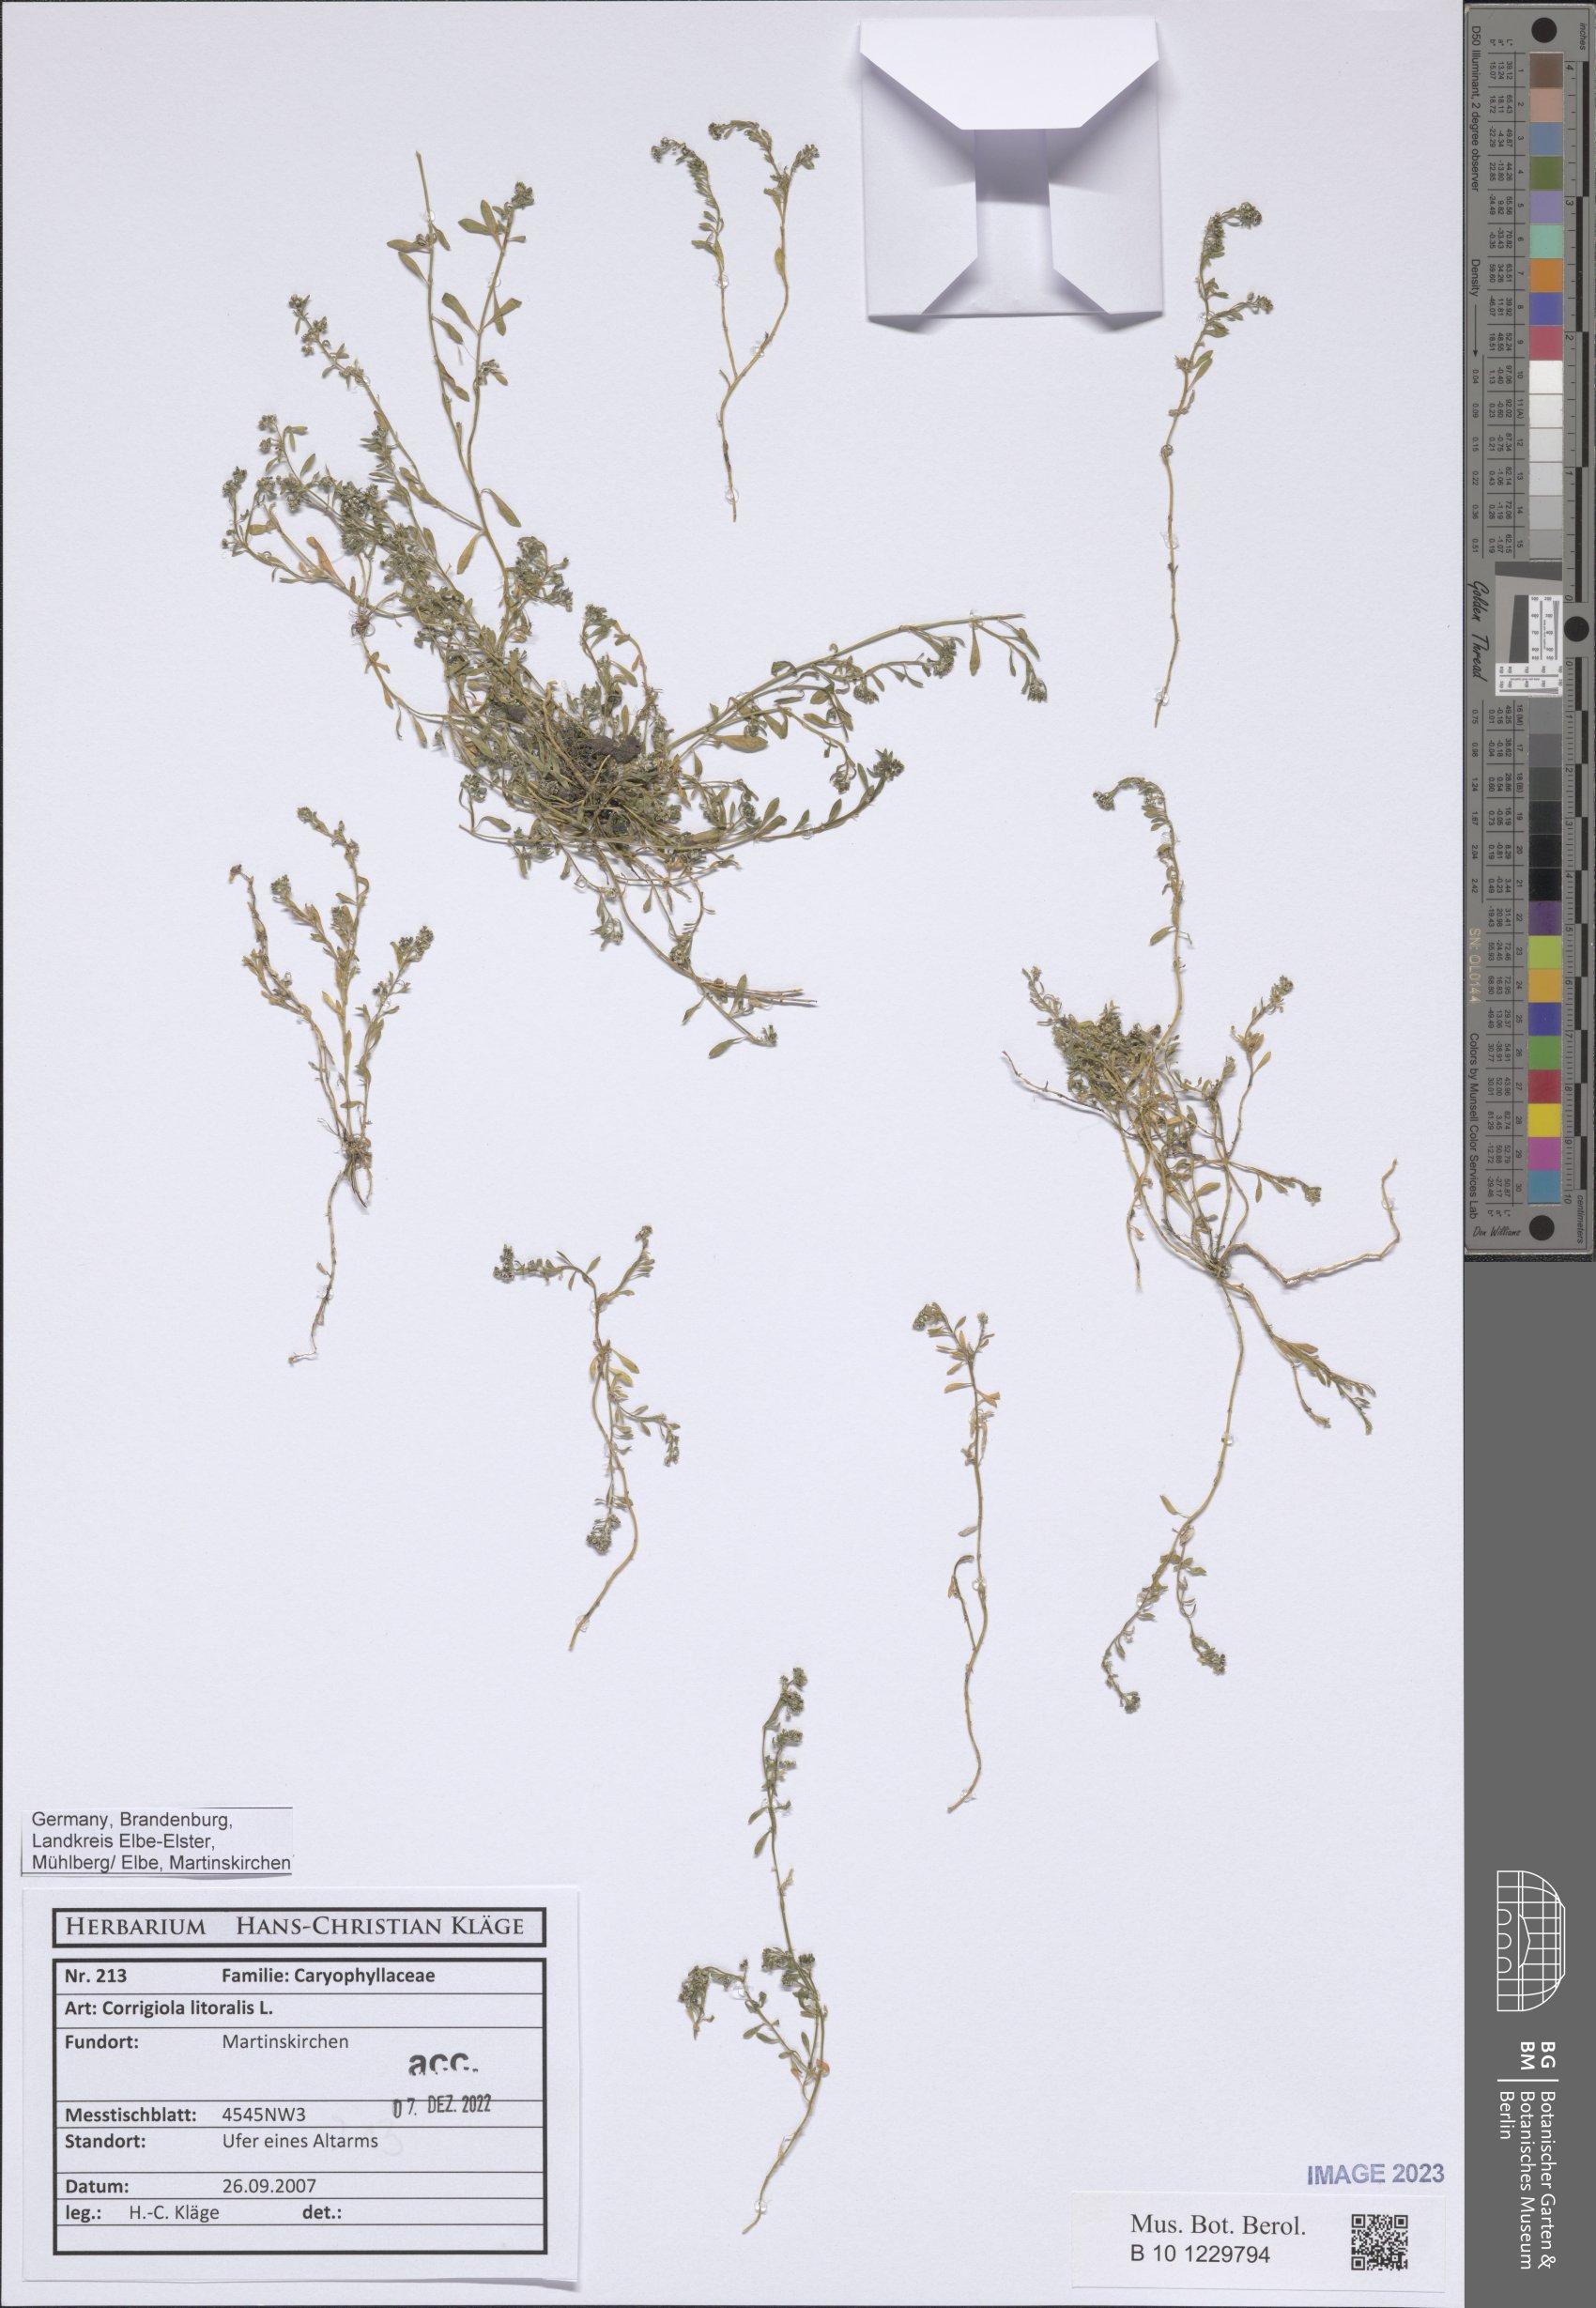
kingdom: Plantae
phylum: Tracheophyta
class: Magnoliopsida
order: Caryophyllales
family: Caryophyllaceae
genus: Corrigiola
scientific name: Corrigiola litoralis
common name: Strapwort
